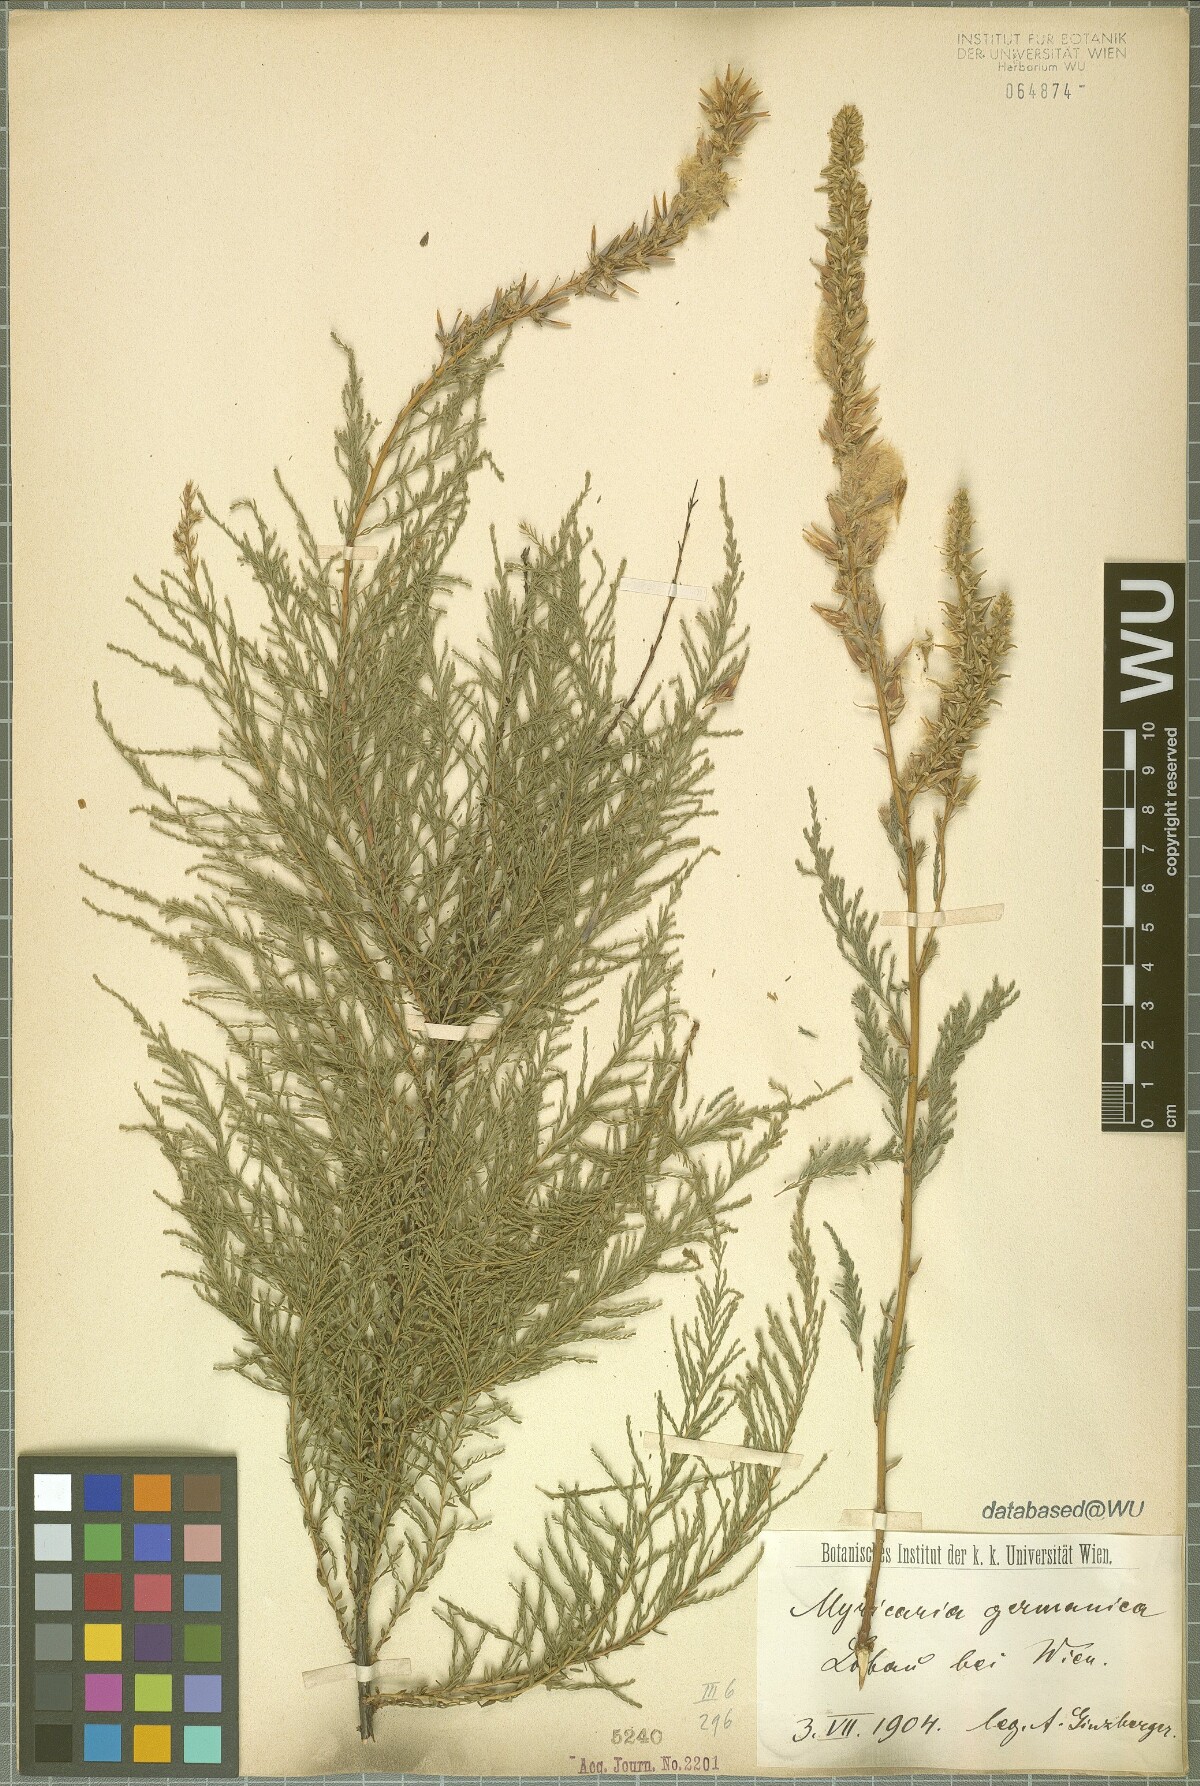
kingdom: Plantae
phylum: Tracheophyta
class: Magnoliopsida
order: Caryophyllales
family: Tamaricaceae
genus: Myricaria
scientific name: Myricaria germanica
